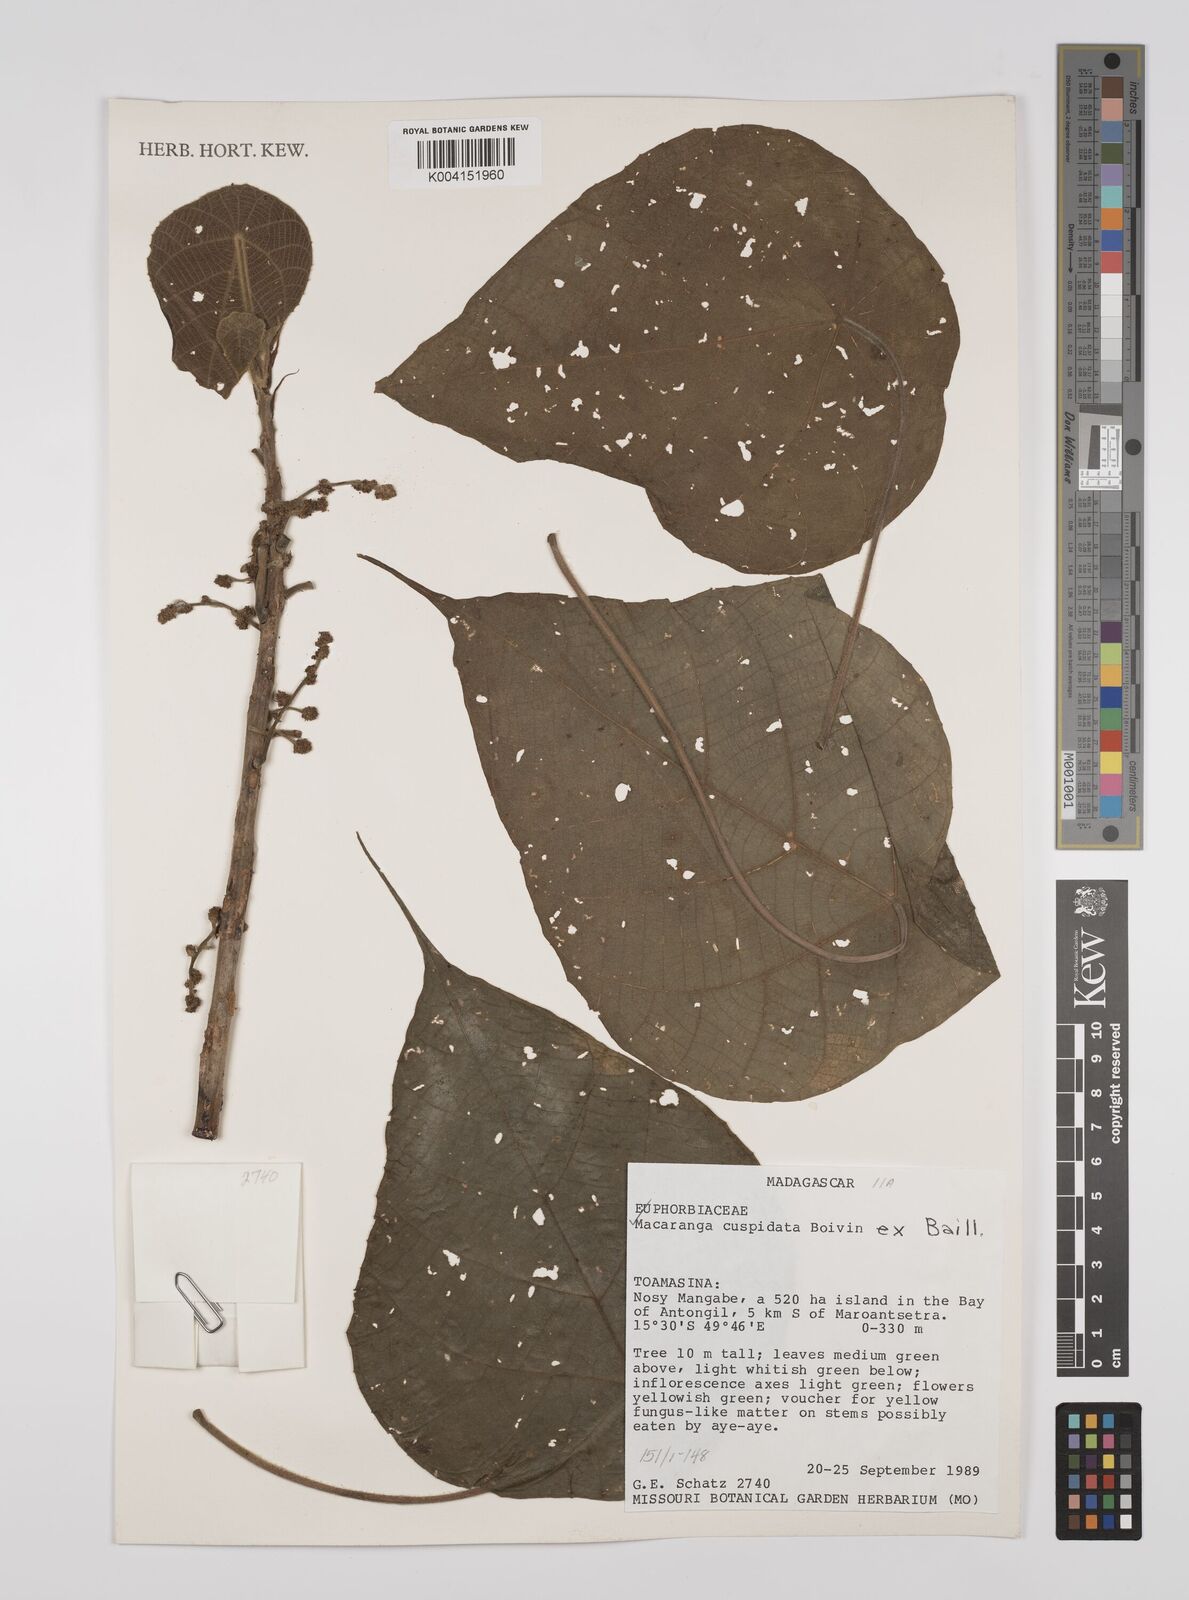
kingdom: Plantae
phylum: Tracheophyta
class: Magnoliopsida
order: Malpighiales
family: Euphorbiaceae
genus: Macaranga
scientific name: Macaranga cuspidata
